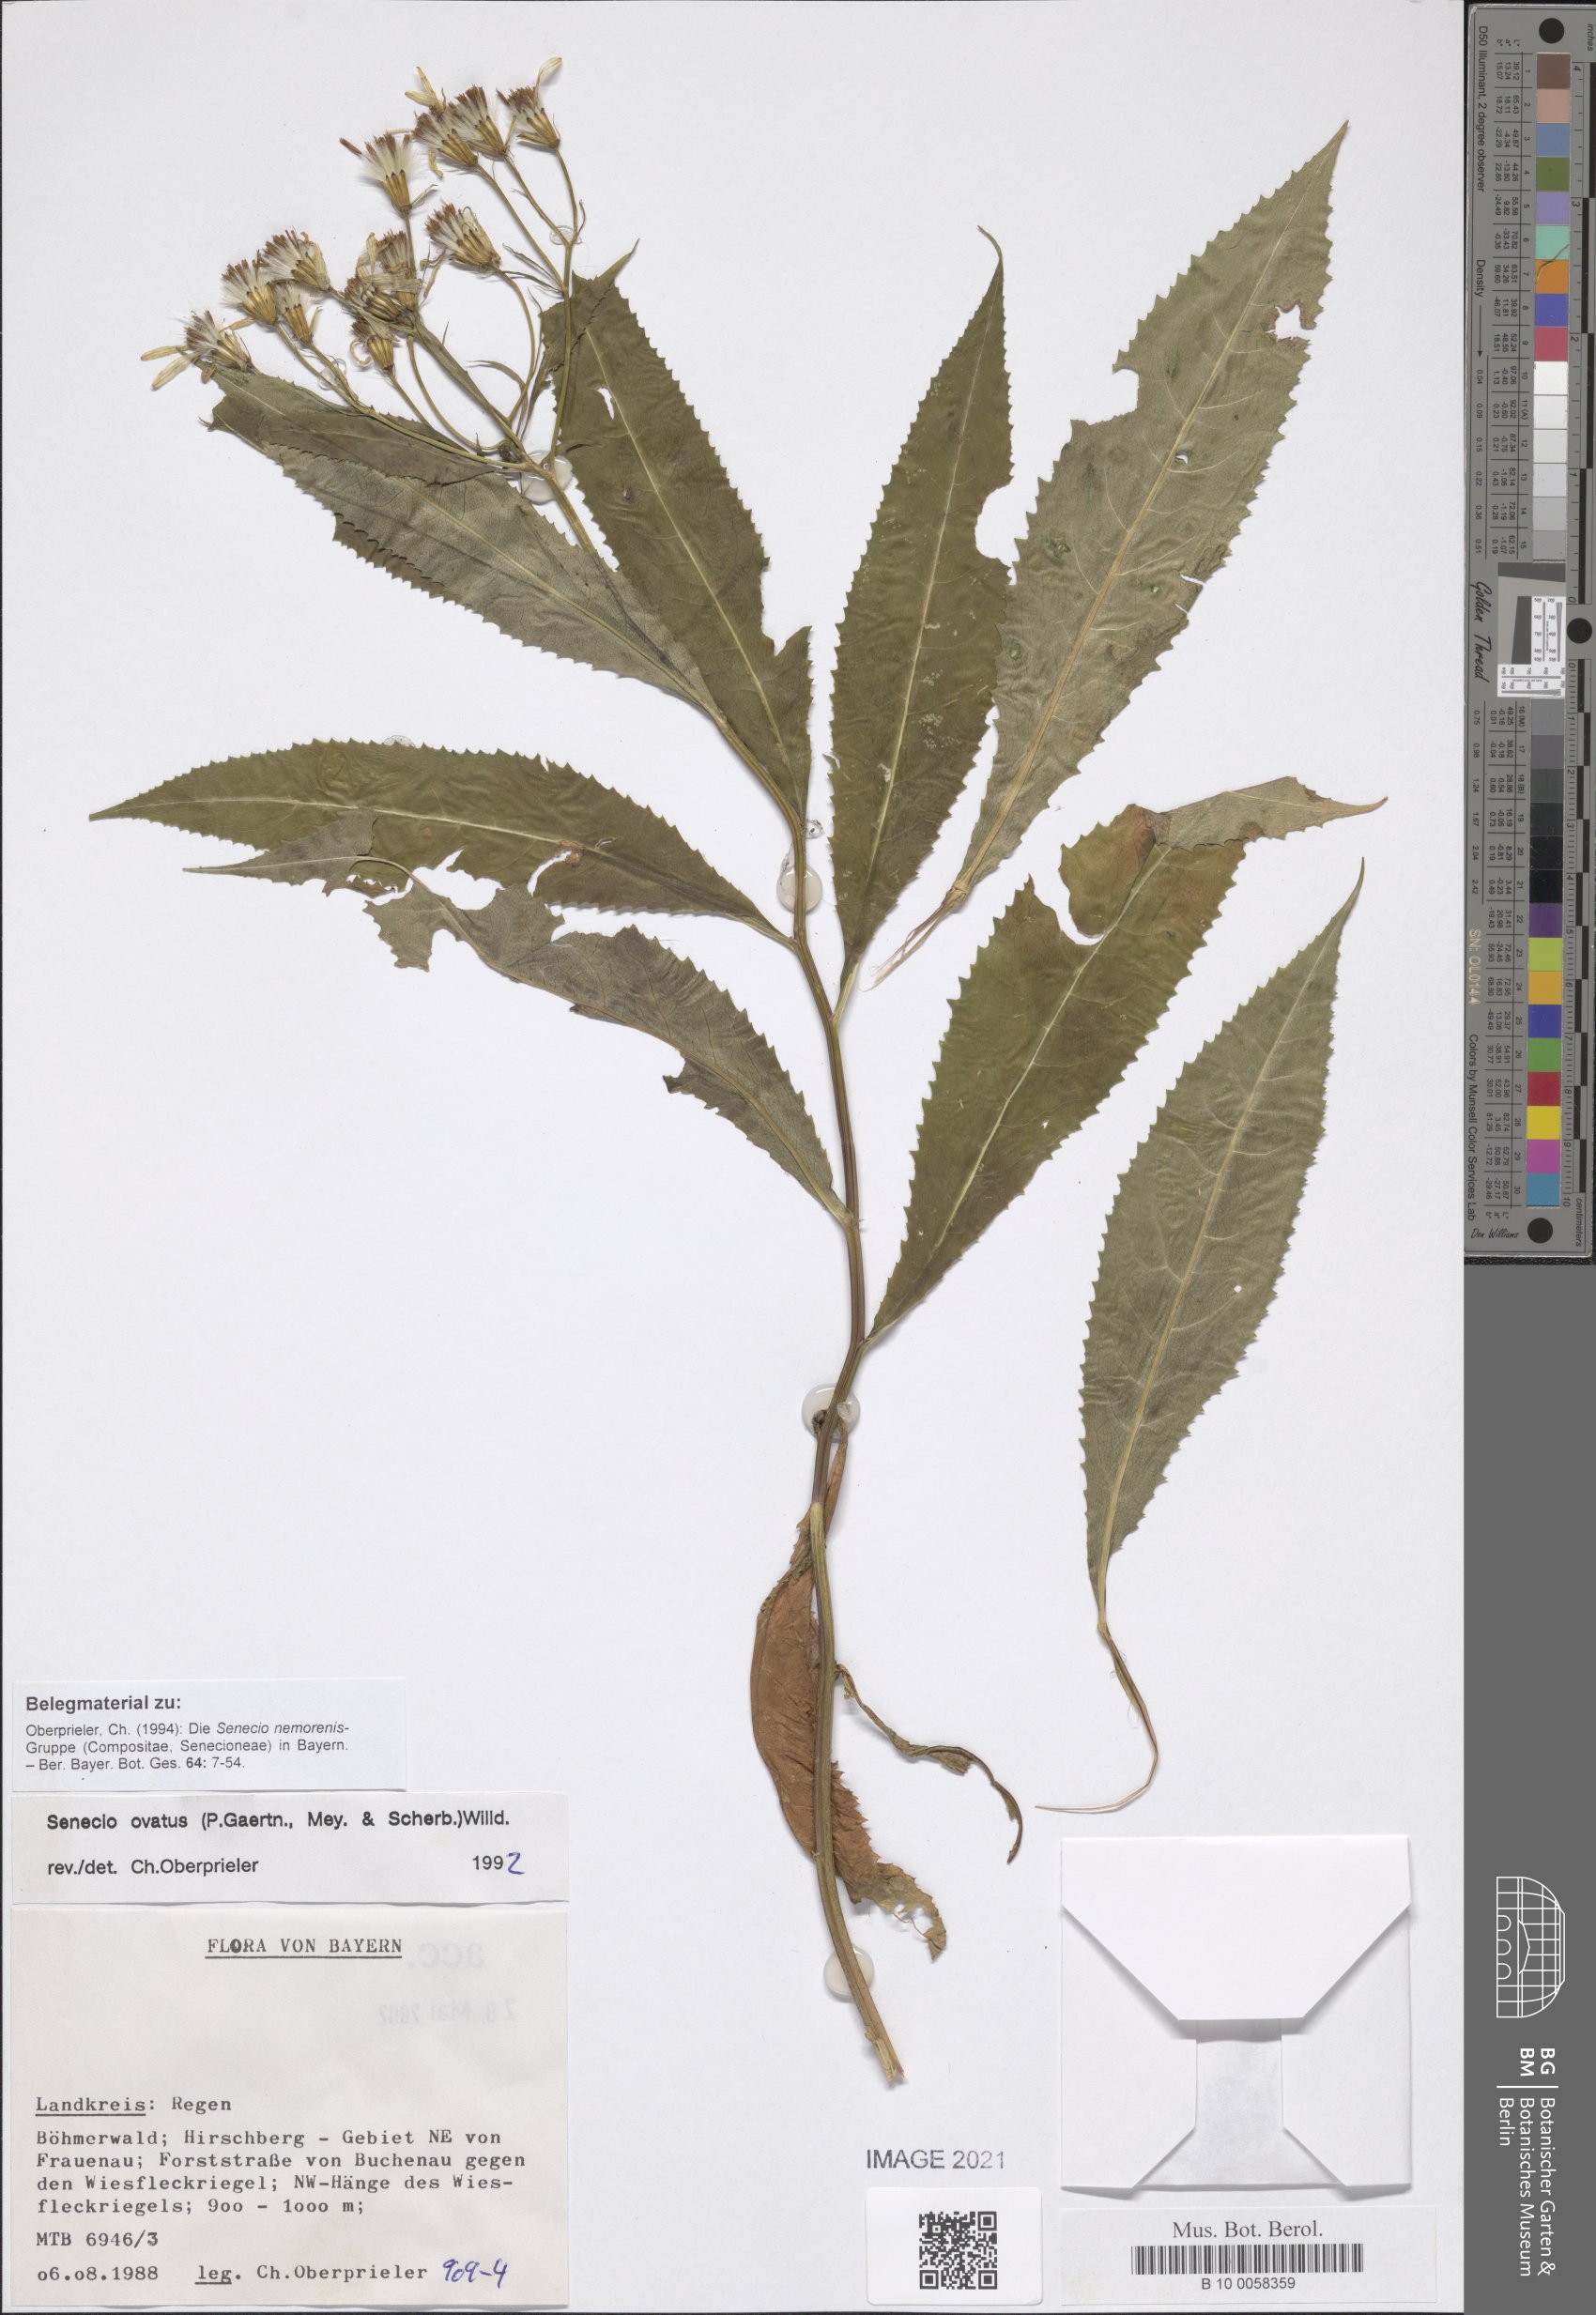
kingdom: Plantae
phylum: Tracheophyta
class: Magnoliopsida
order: Asterales
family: Asteraceae
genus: Senecio
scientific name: Senecio ovatus
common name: Wood ragwort
